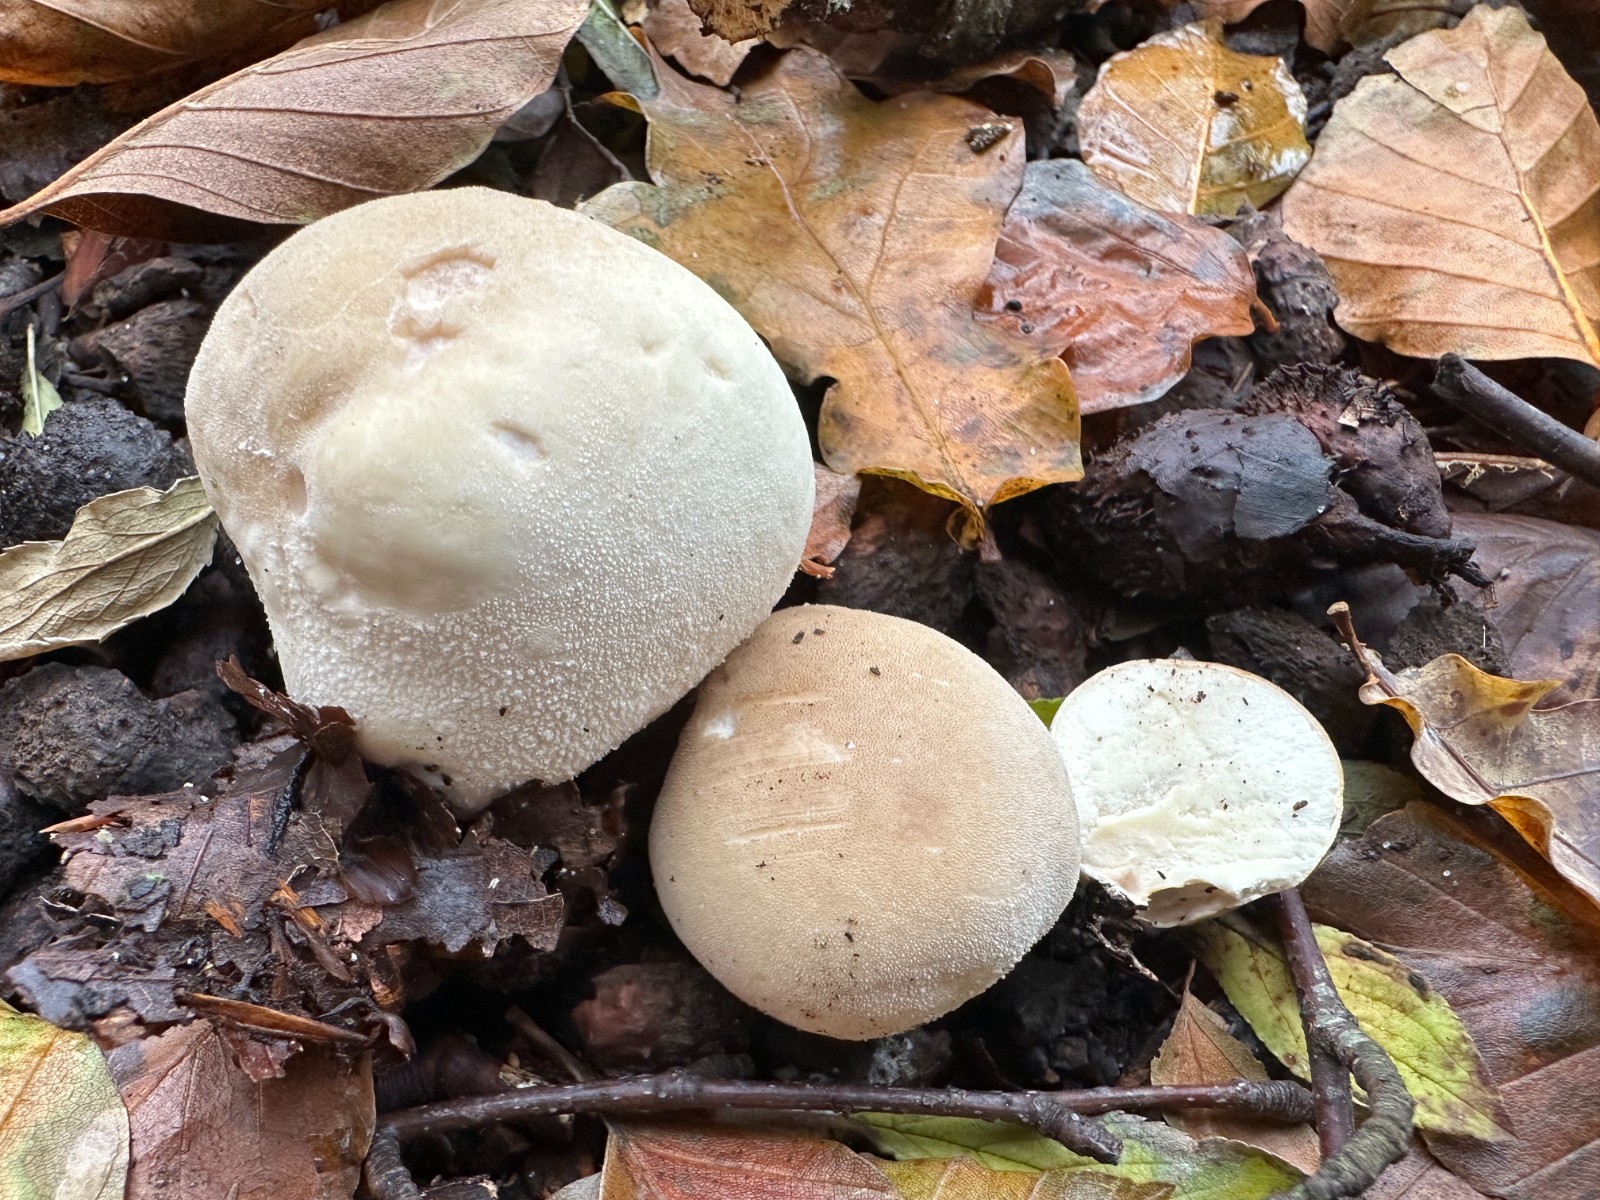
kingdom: Fungi
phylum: Basidiomycota
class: Agaricomycetes
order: Agaricales
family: Lycoperdaceae
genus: Lycoperdon
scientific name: Lycoperdon molle
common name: skov-støvbold
